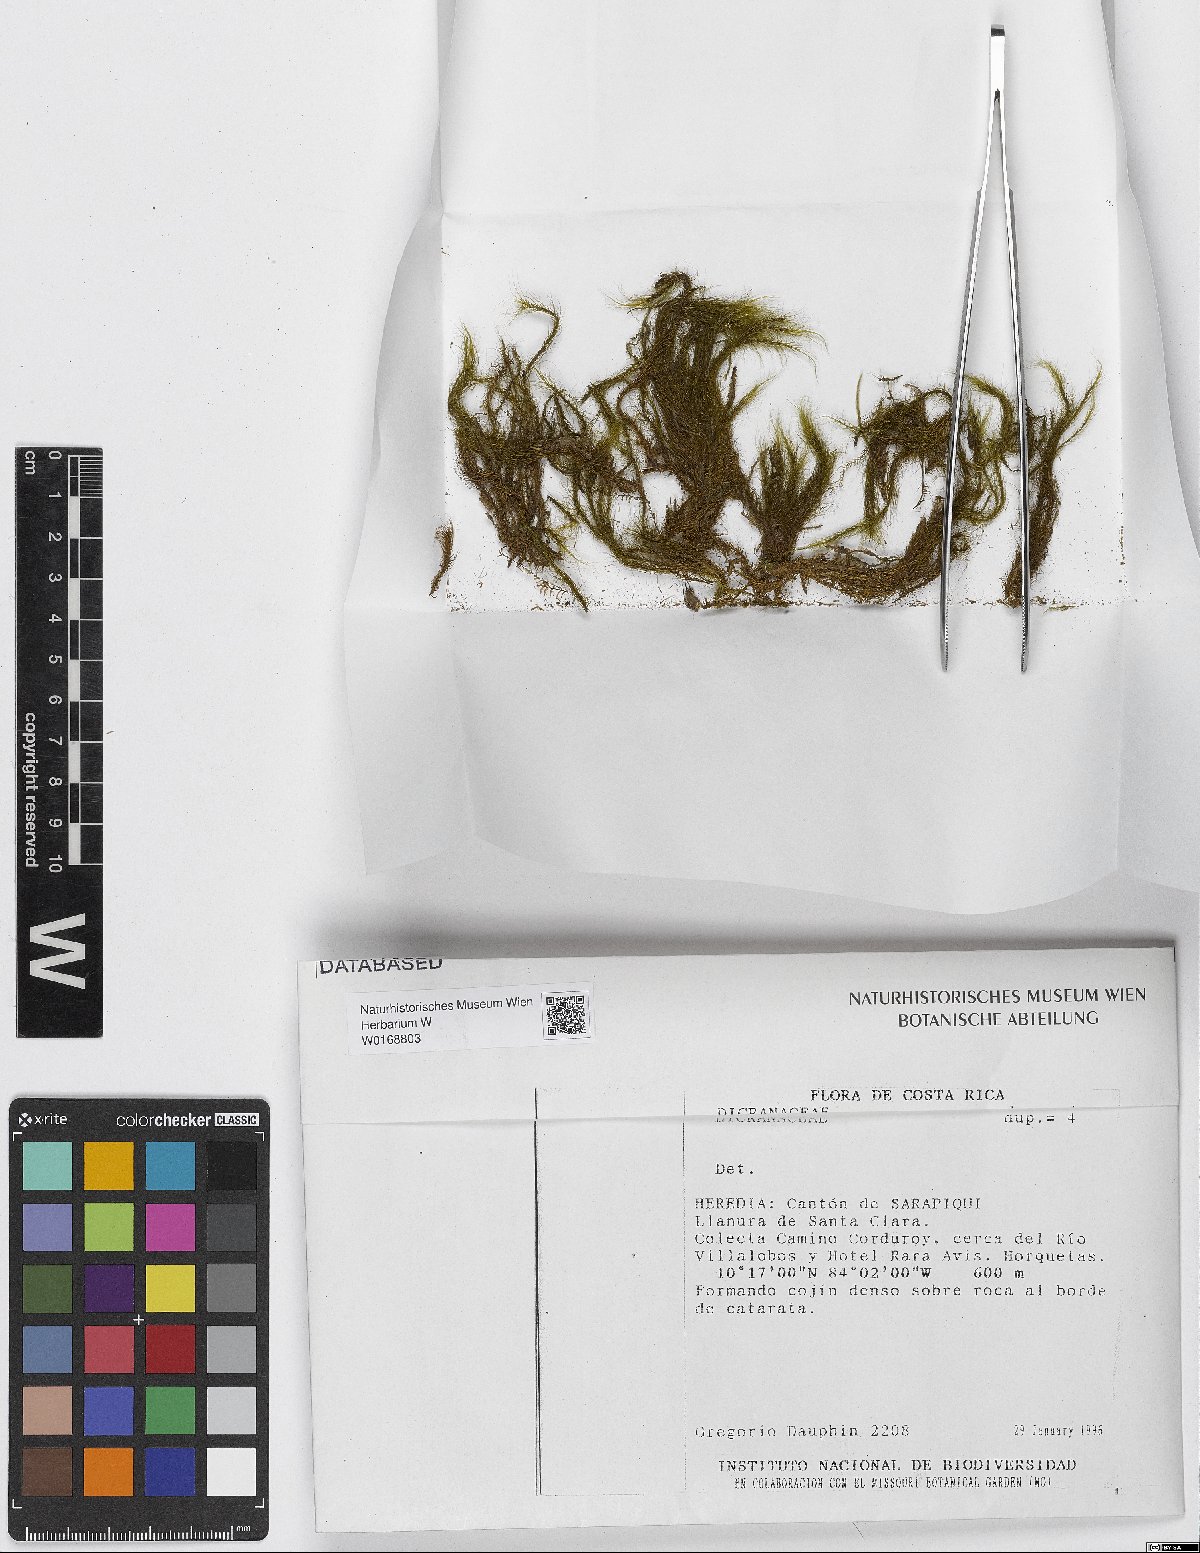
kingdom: Plantae
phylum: Bryophyta
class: Bryopsida
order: Dicranales
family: Dicranaceae
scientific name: Dicranaceae
